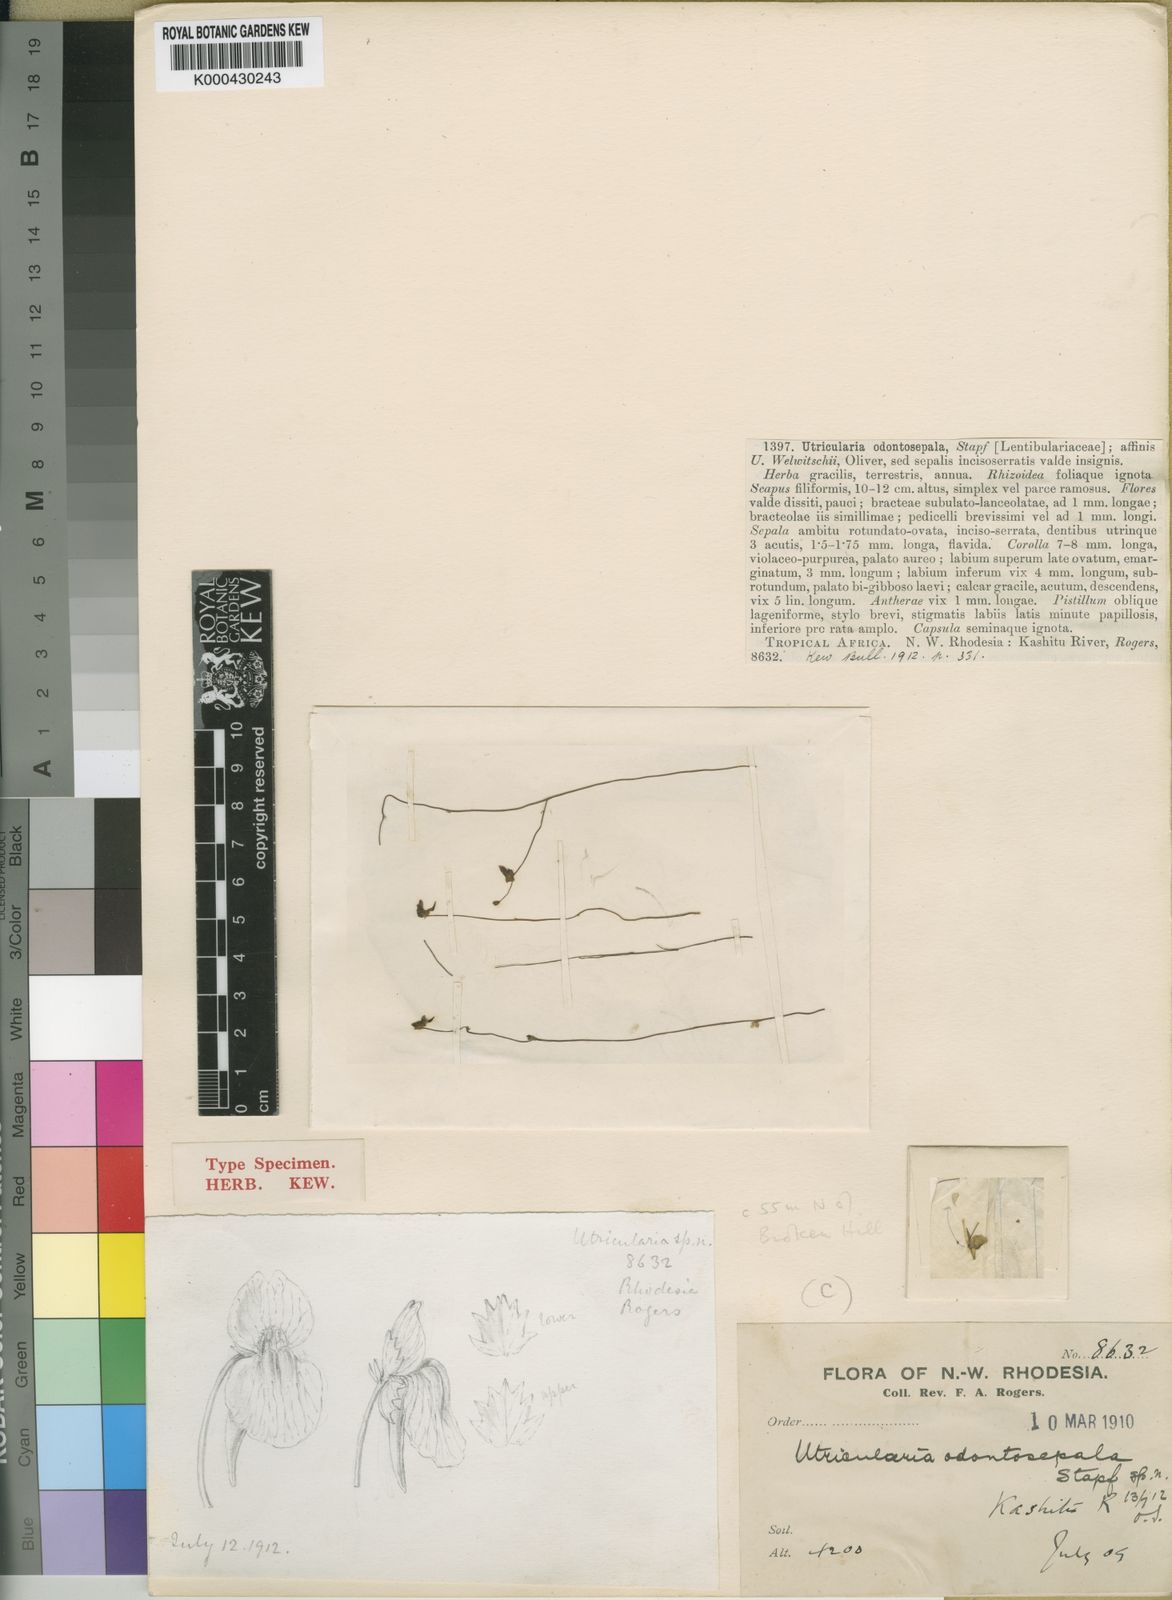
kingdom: Plantae
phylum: Tracheophyta
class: Magnoliopsida
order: Lamiales
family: Lentibulariaceae
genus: Utricularia
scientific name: Utricularia odontosepala
